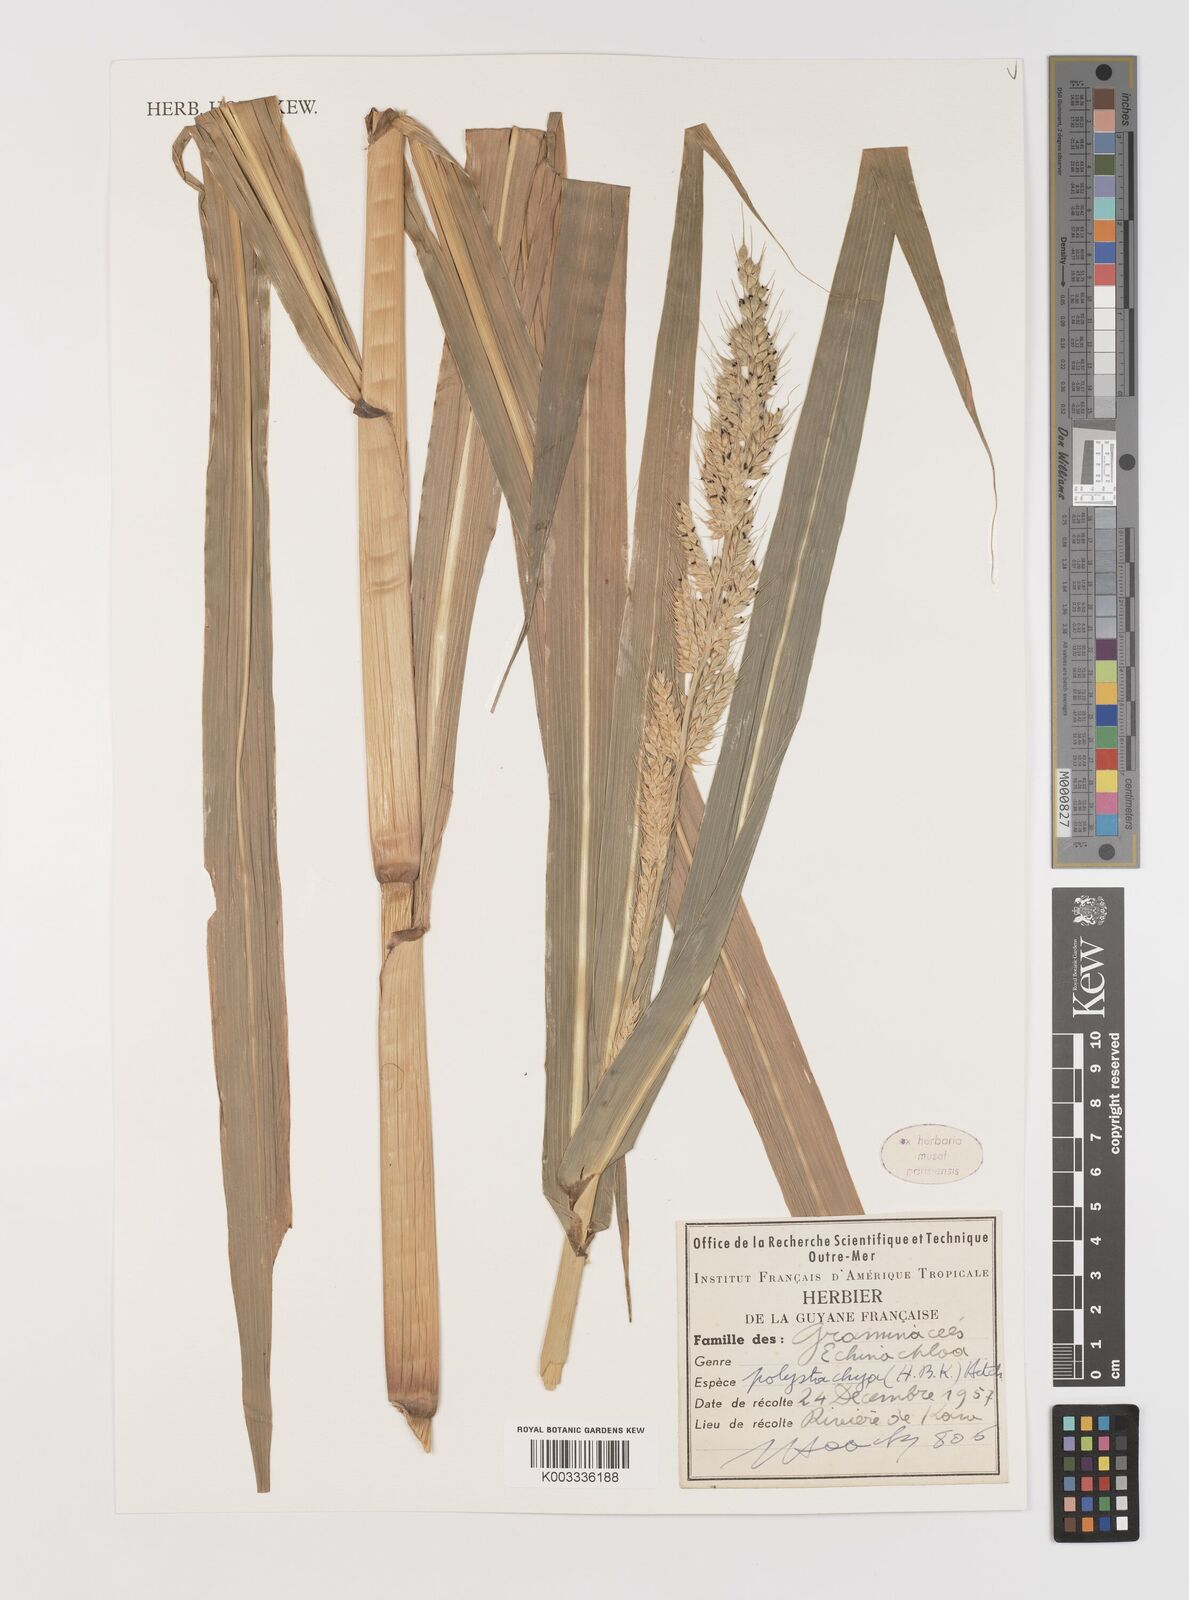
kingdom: Plantae
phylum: Tracheophyta
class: Liliopsida
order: Poales
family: Poaceae
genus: Echinochloa
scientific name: Echinochloa polystachya
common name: Creeping river grass
